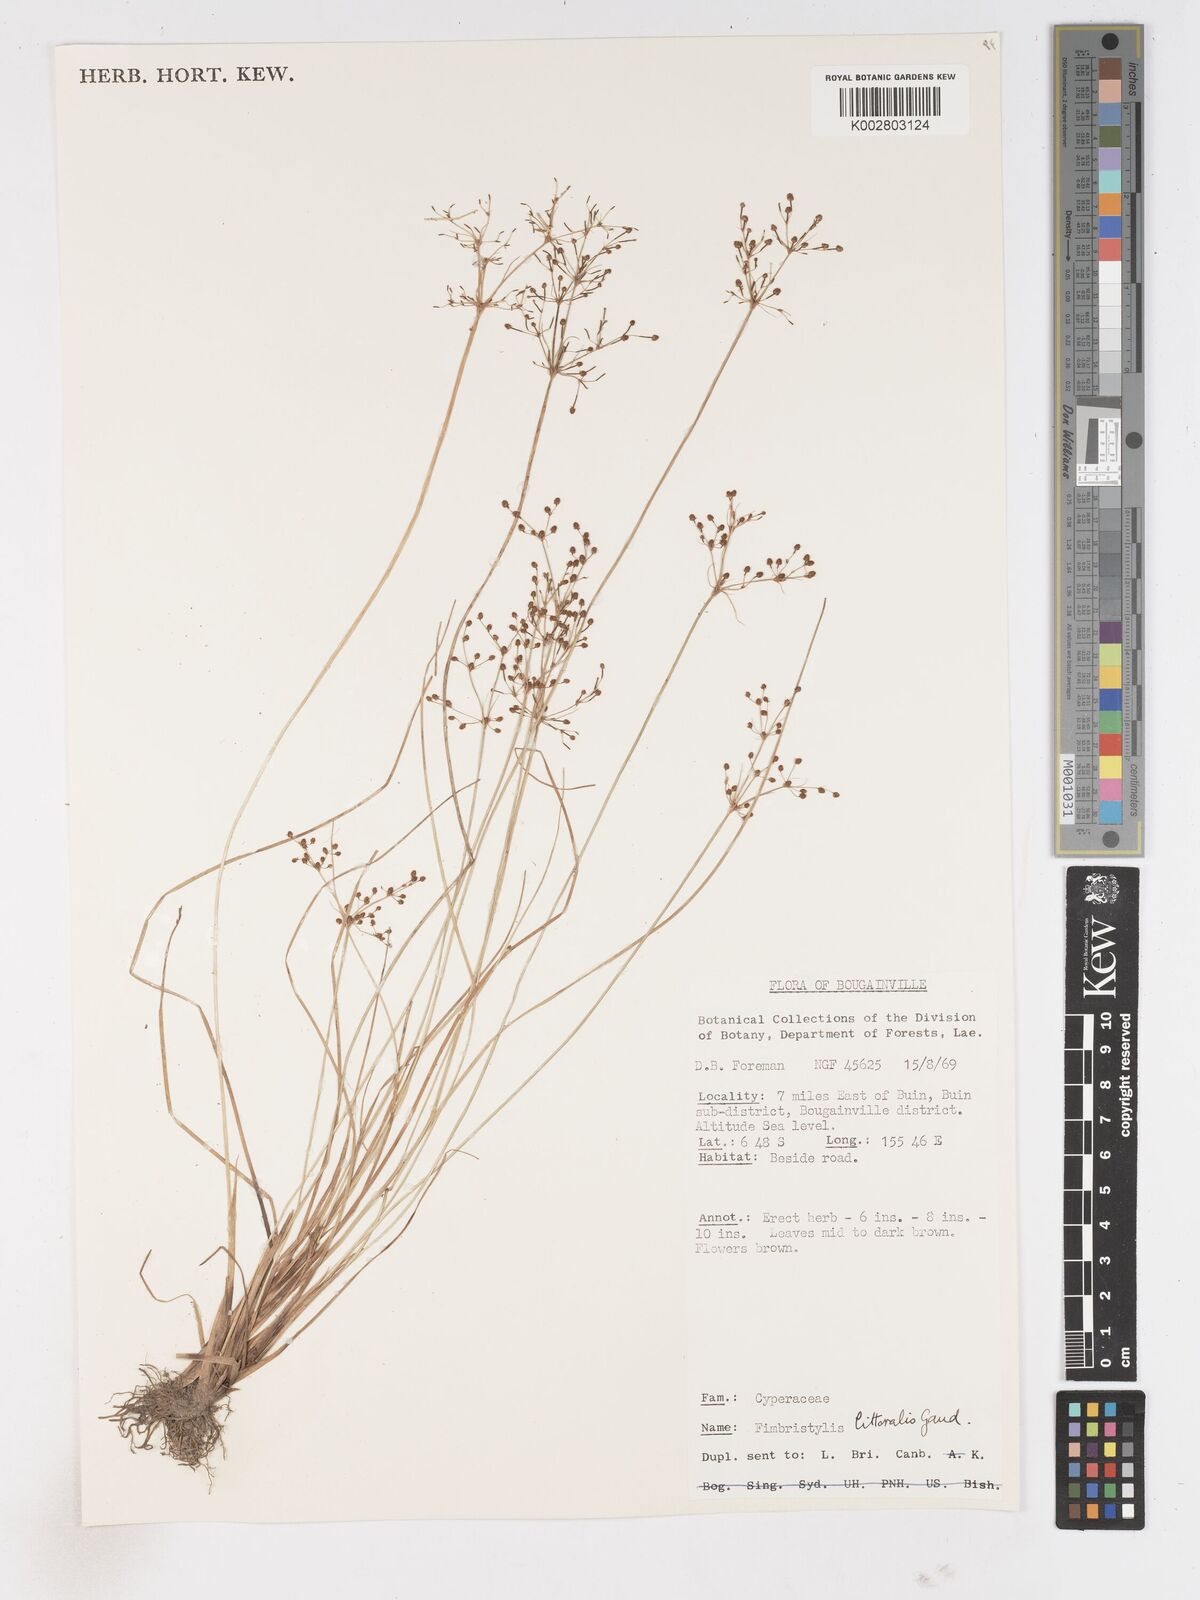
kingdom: Plantae
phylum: Tracheophyta
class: Liliopsida
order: Poales
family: Cyperaceae
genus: Fimbristylis
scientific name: Fimbristylis littoralis
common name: Fimbry
